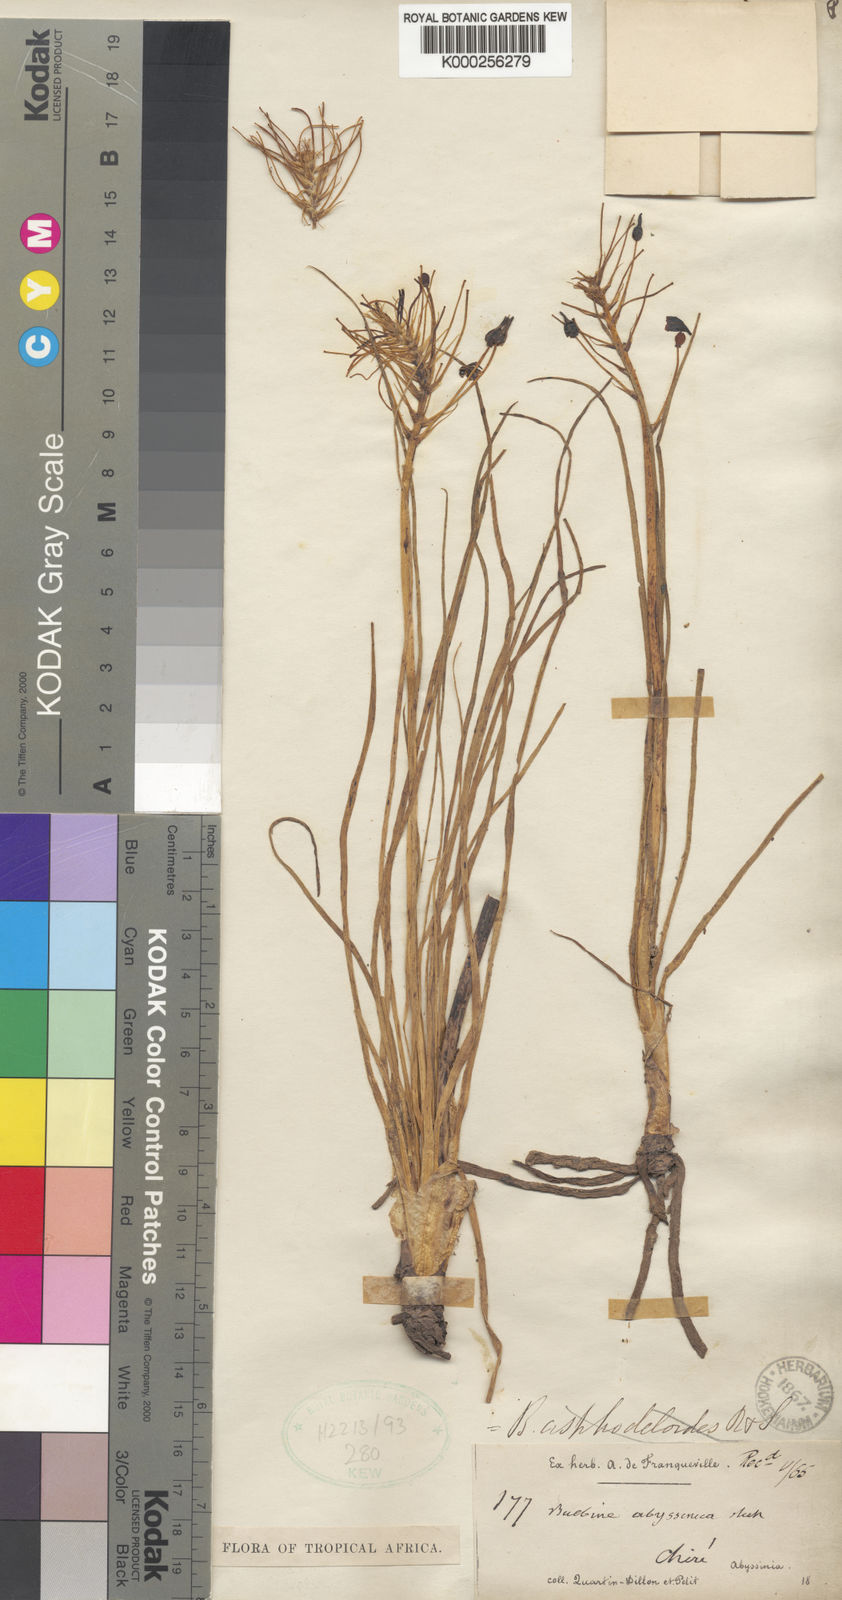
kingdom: Plantae
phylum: Tracheophyta
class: Liliopsida
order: Asparagales
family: Asphodelaceae
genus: Bulbine
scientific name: Bulbine abyssinica
